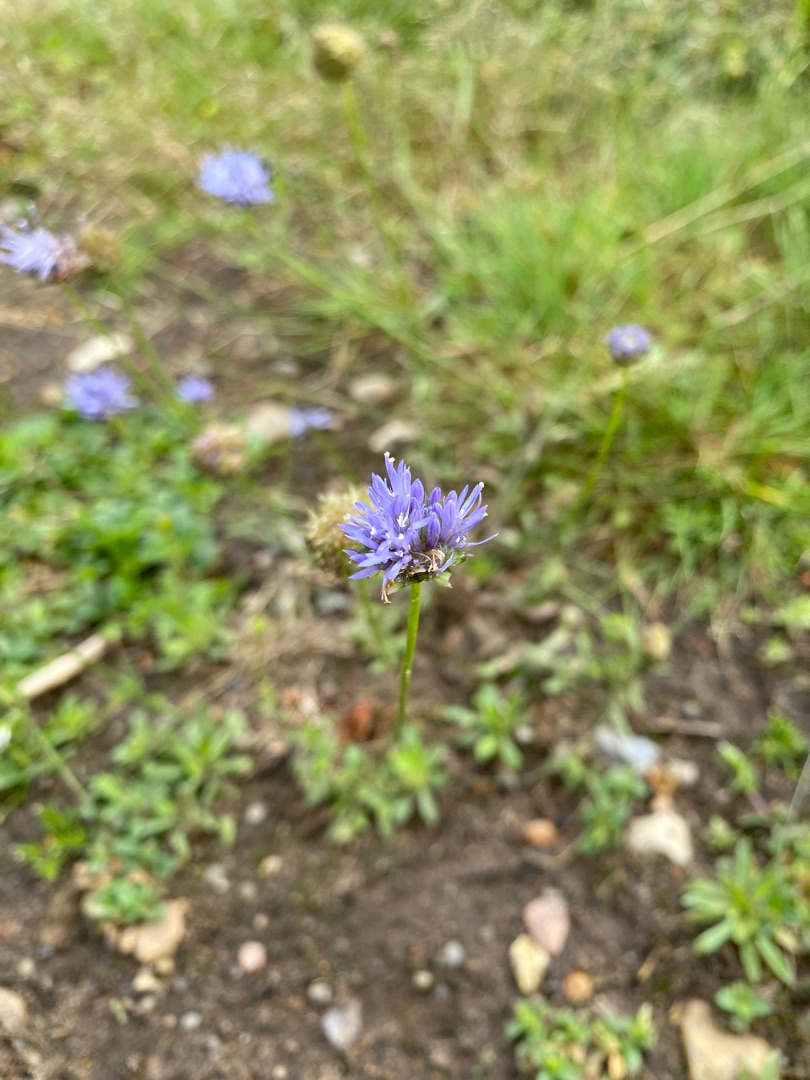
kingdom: Plantae
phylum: Tracheophyta
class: Magnoliopsida
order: Asterales
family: Campanulaceae
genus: Jasione
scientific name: Jasione montana
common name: Blåmunke
